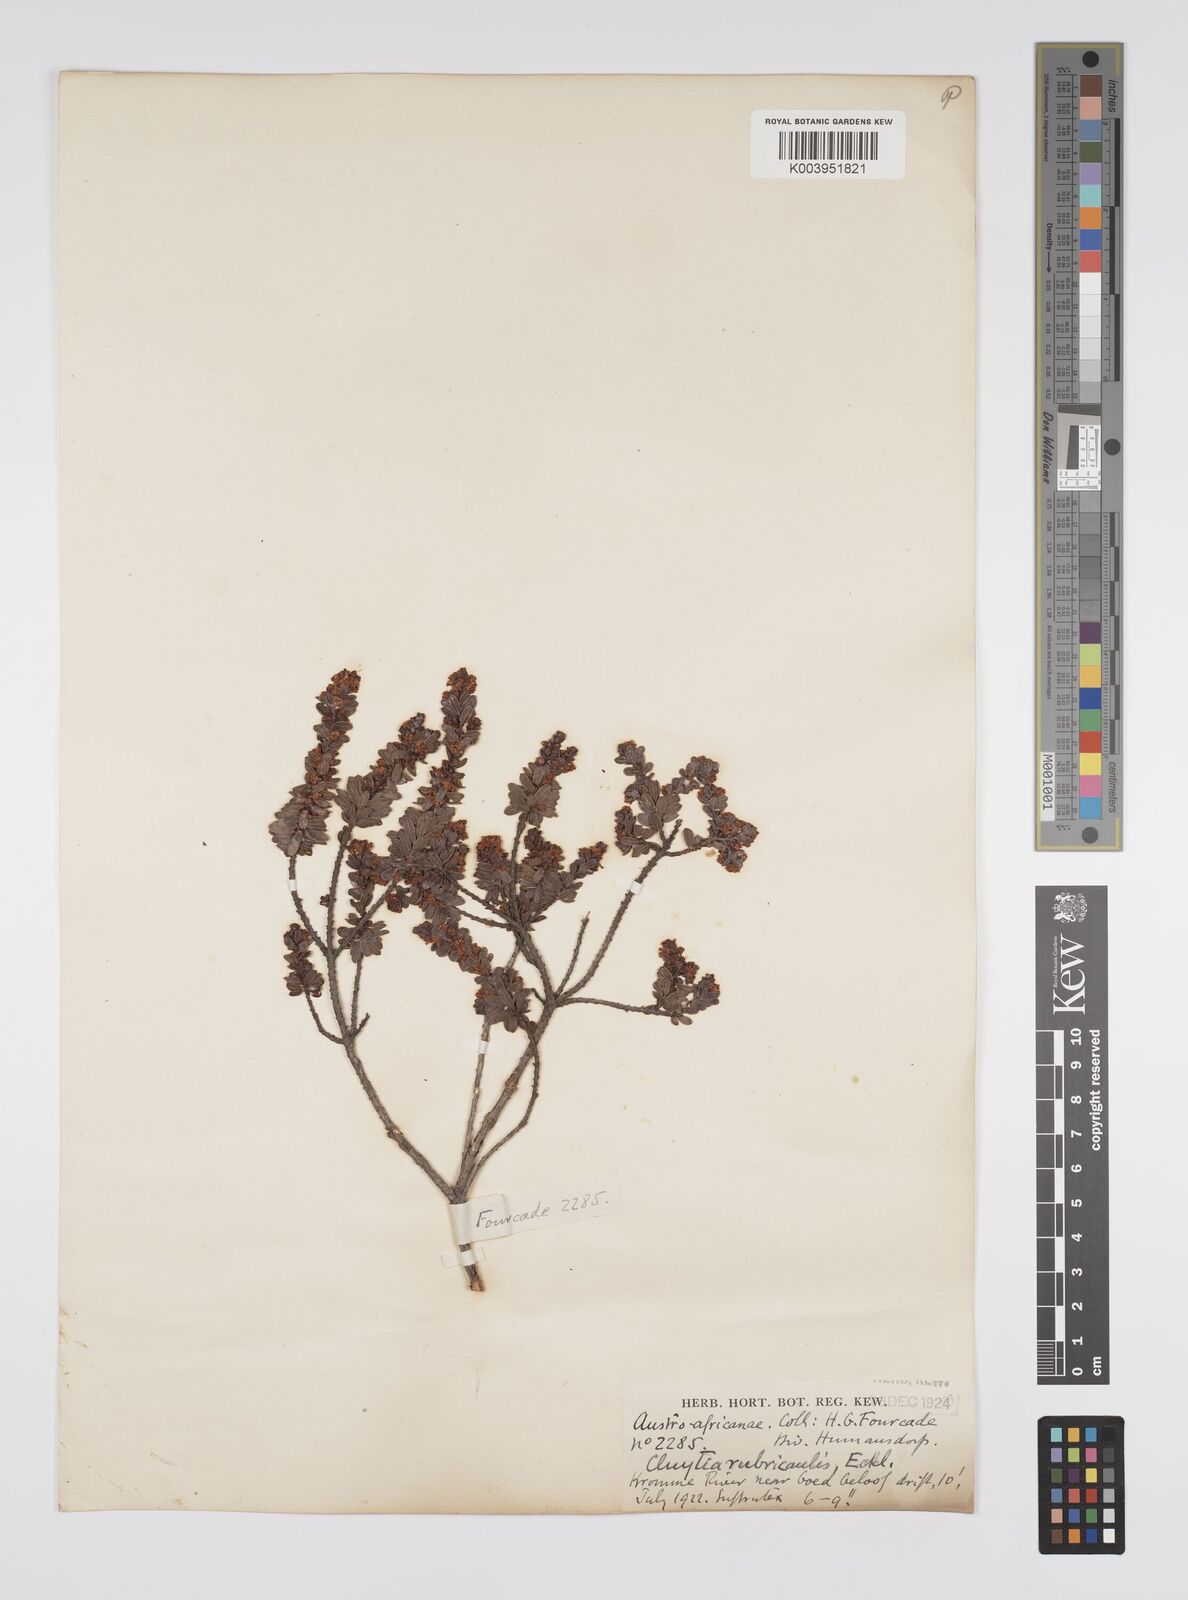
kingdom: Plantae
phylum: Tracheophyta
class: Magnoliopsida
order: Malpighiales
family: Peraceae
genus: Clutia
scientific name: Clutia rubricaulis
